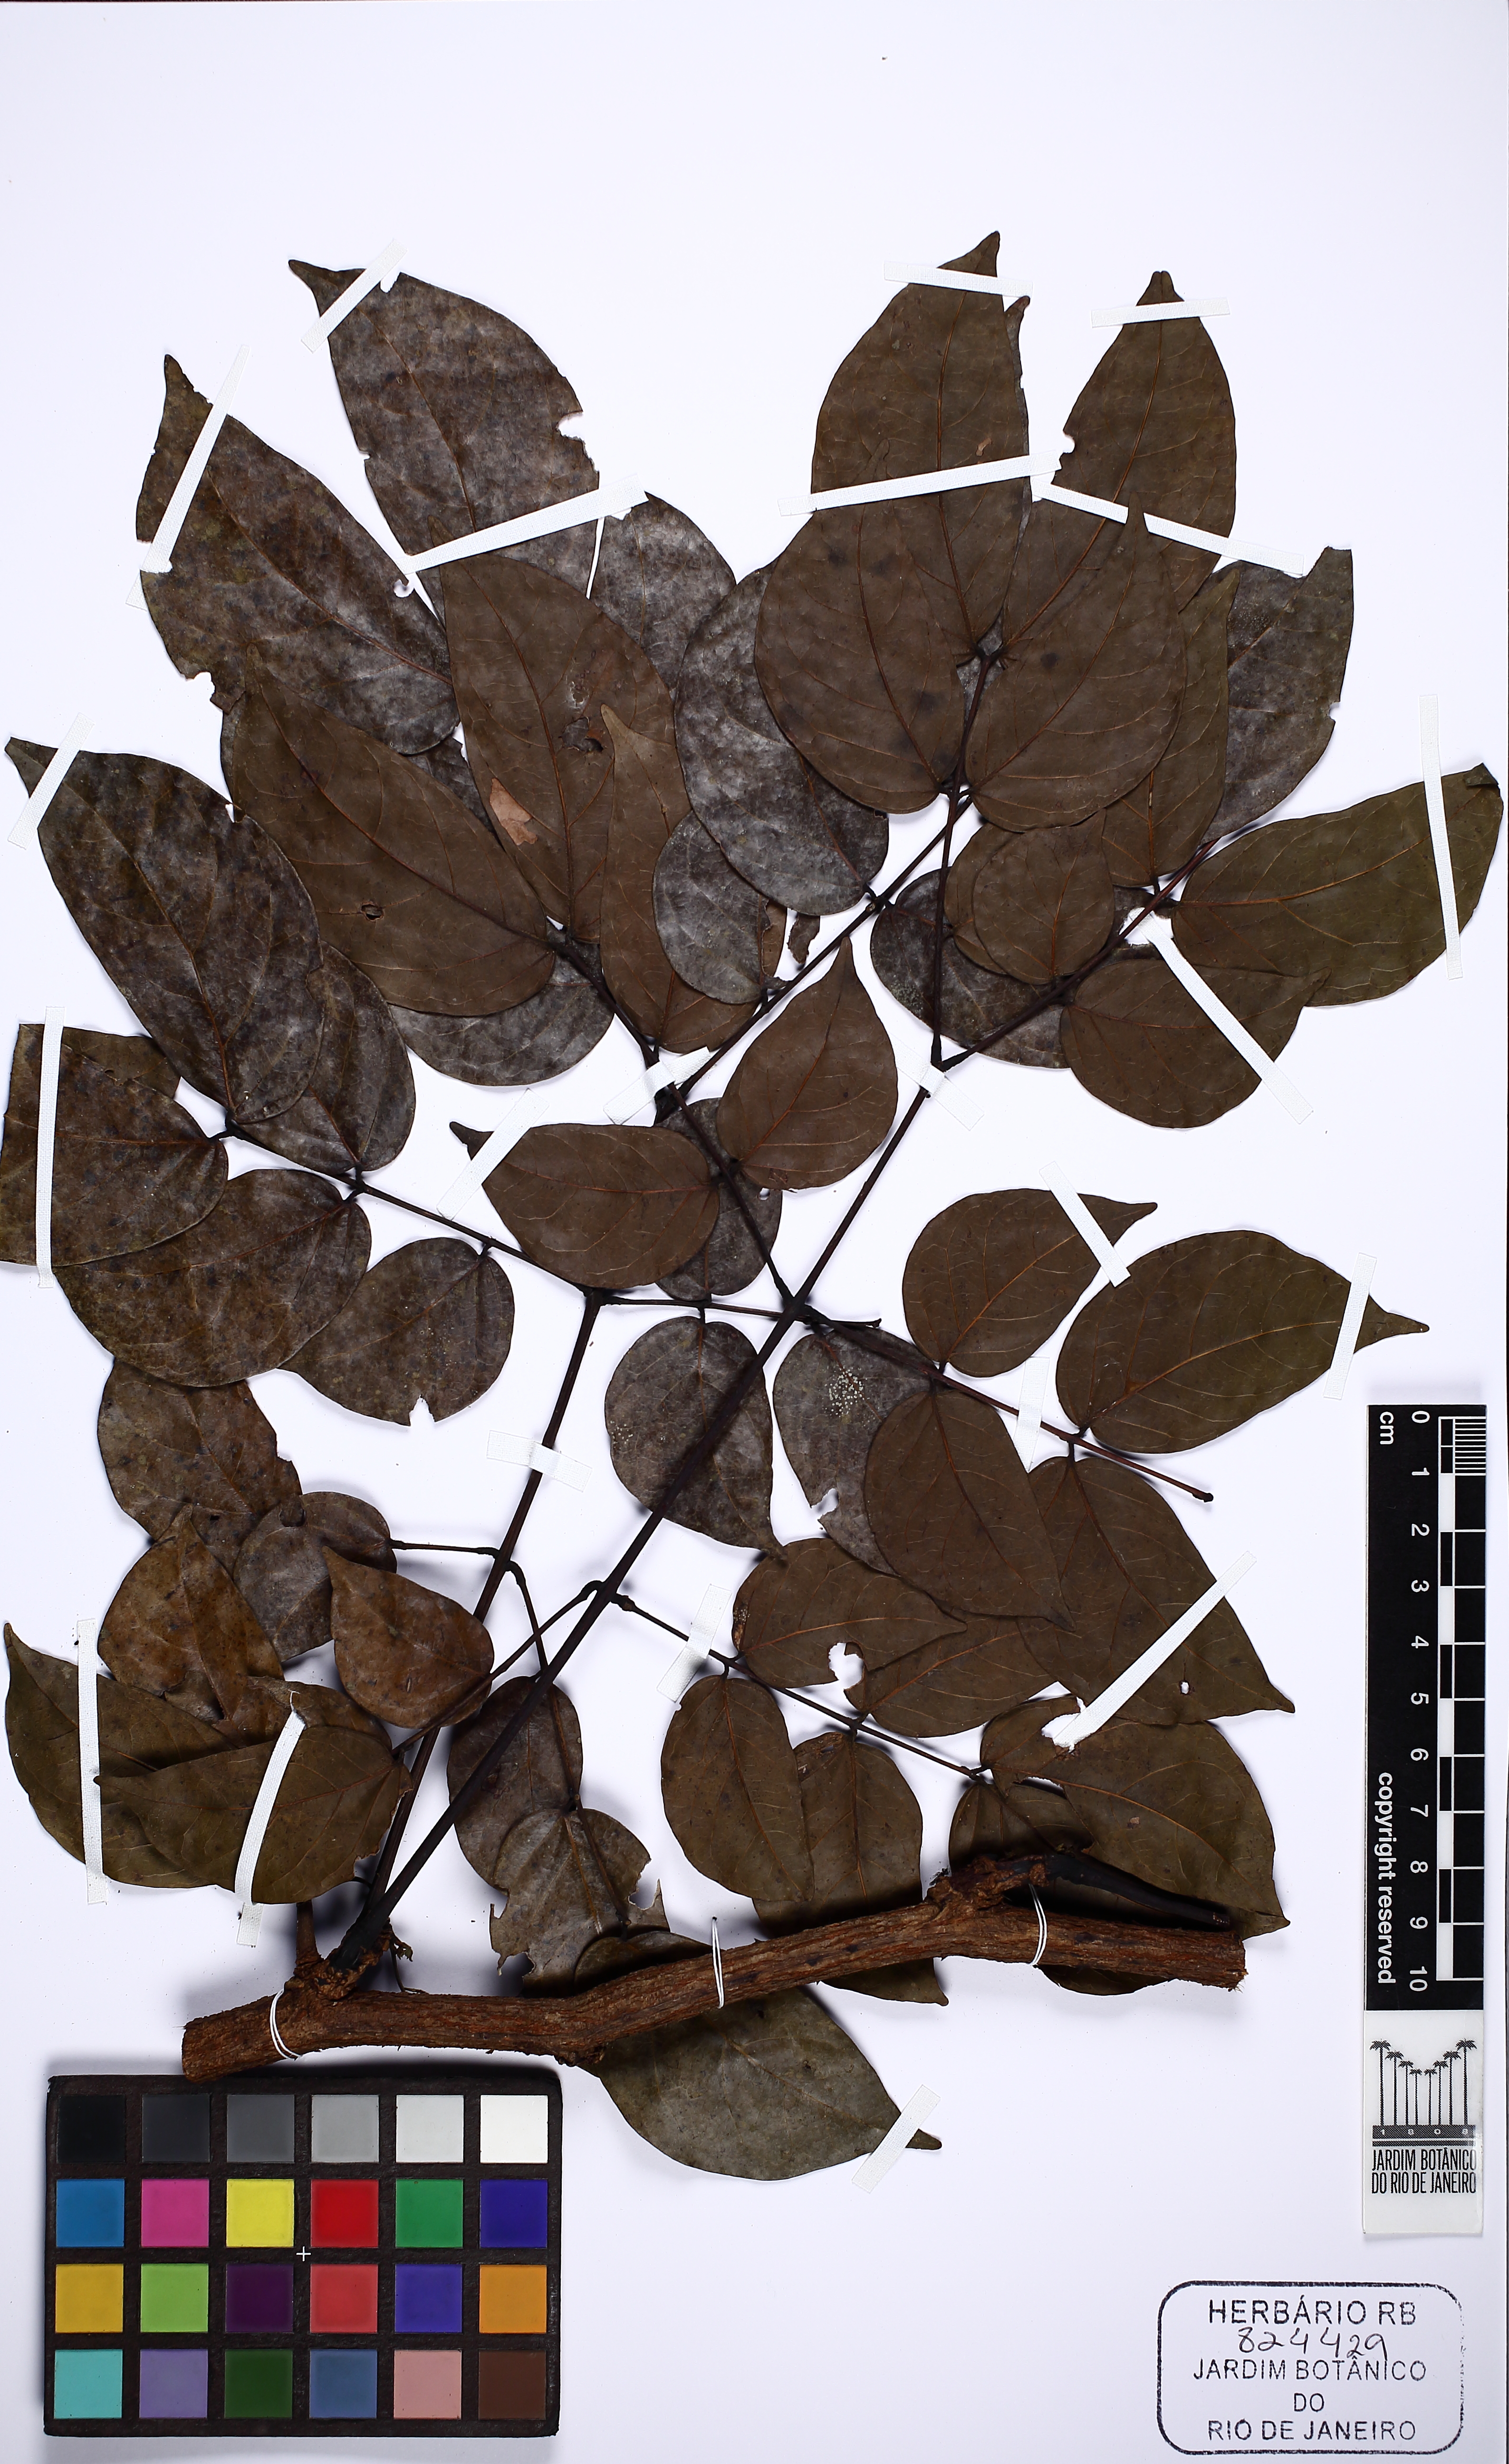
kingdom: Plantae
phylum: Tracheophyta
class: Magnoliopsida
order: Fabales
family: Fabaceae
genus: Senegalia
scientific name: Senegalia altiscandens
